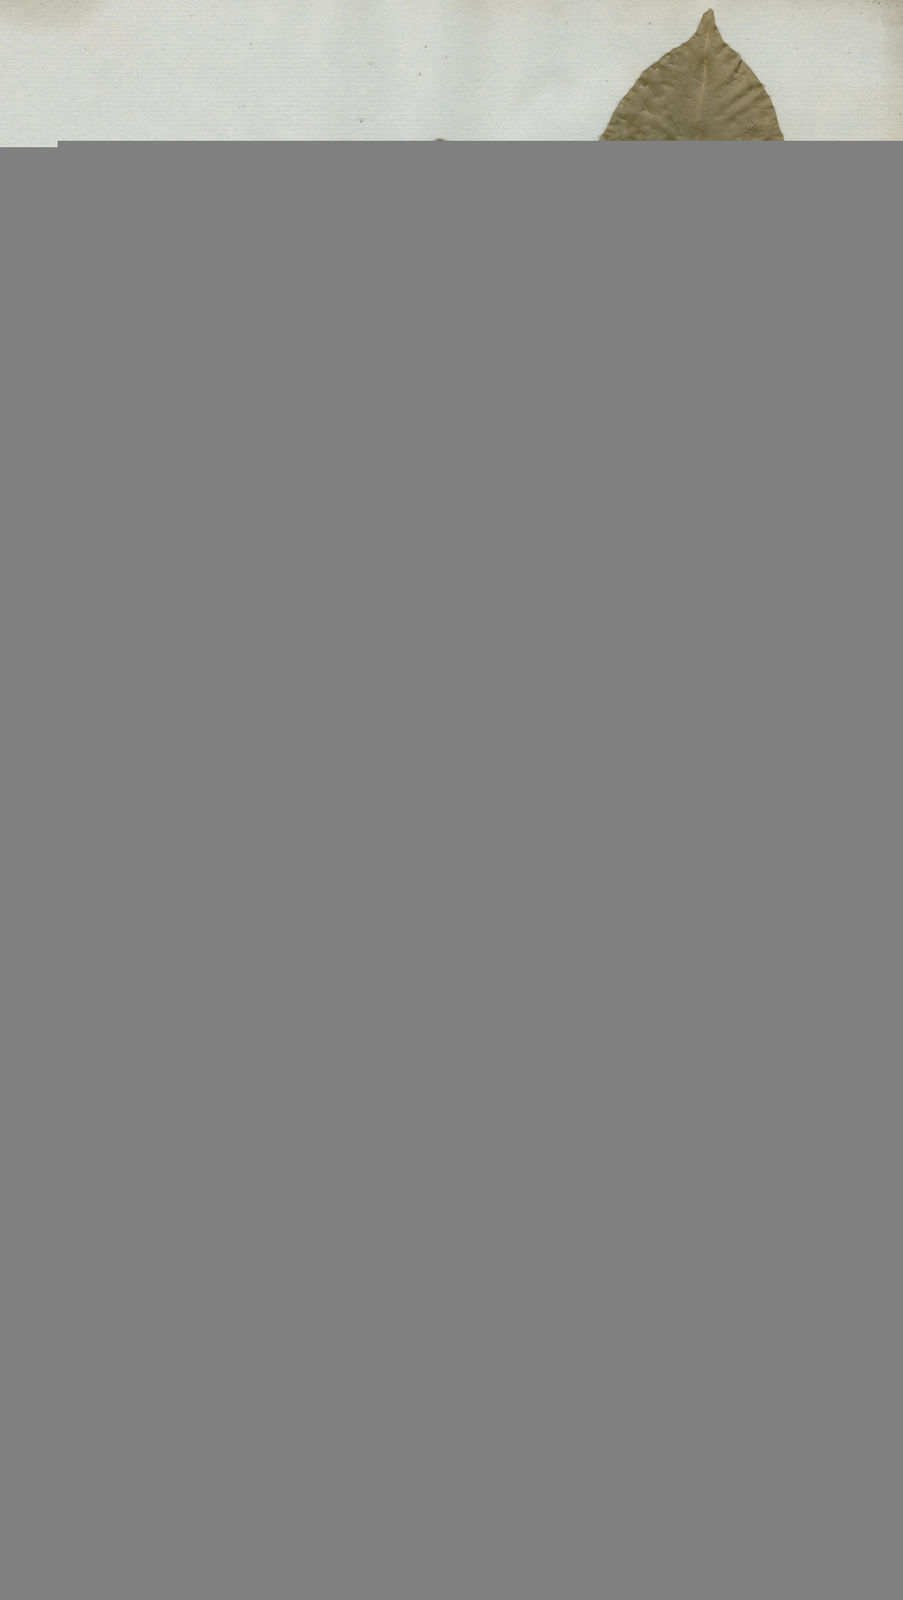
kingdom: Plantae
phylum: Tracheophyta
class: Magnoliopsida
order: Lamiales
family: Oleaceae
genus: Chionanthus
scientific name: Chionanthus micranthus
